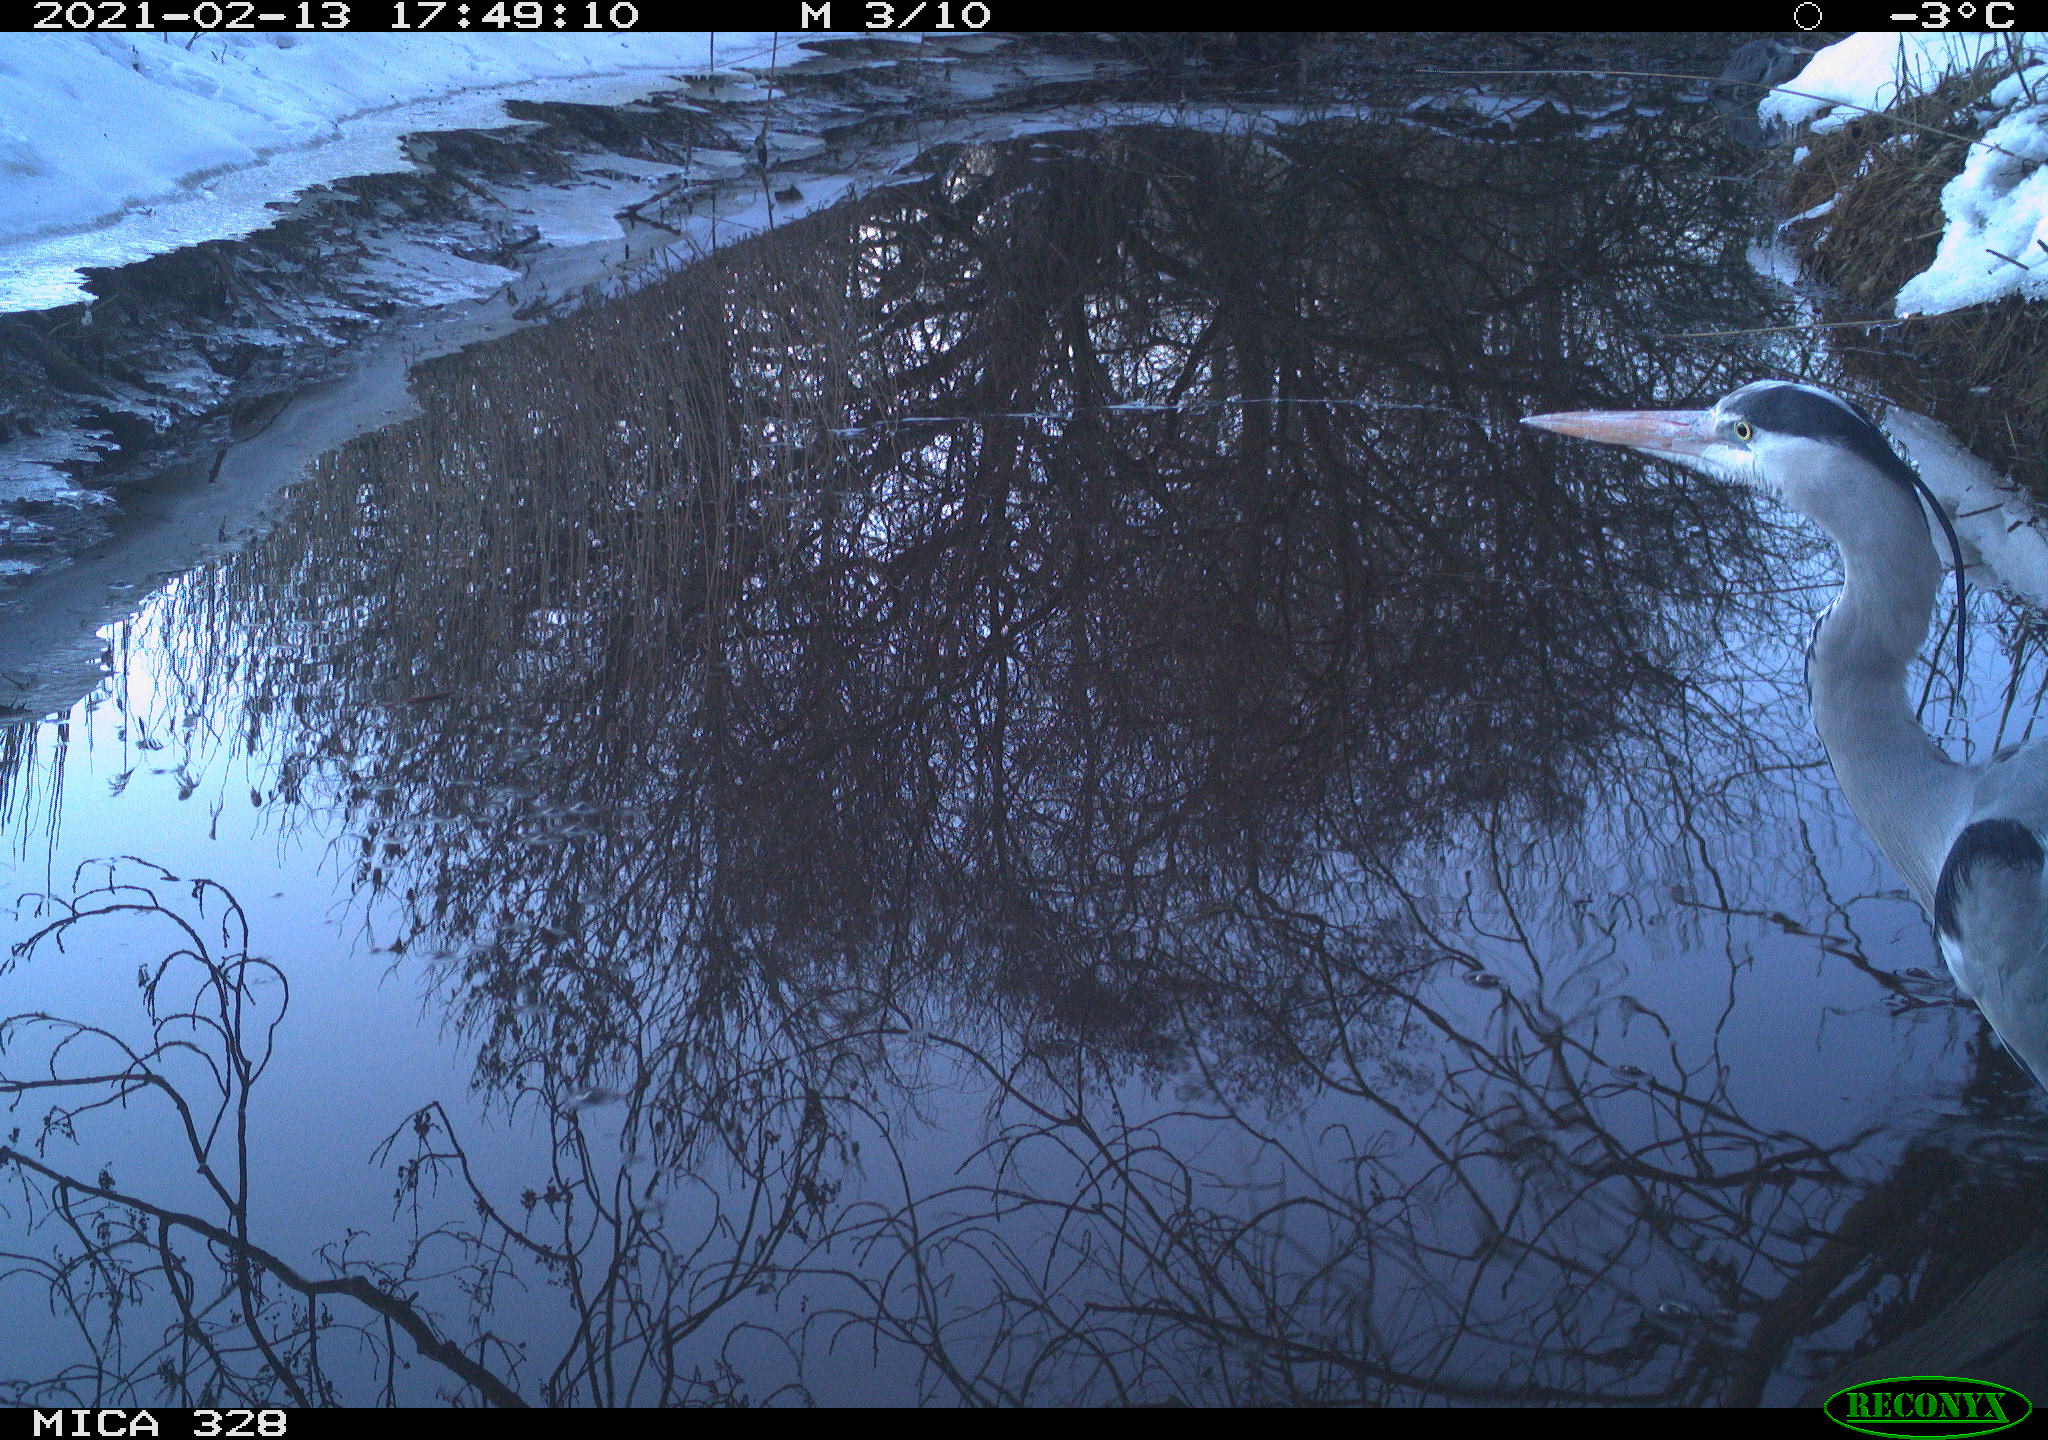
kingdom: Animalia
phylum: Chordata
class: Aves
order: Pelecaniformes
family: Ardeidae
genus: Ardea
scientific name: Ardea cinerea
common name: Grey heron
